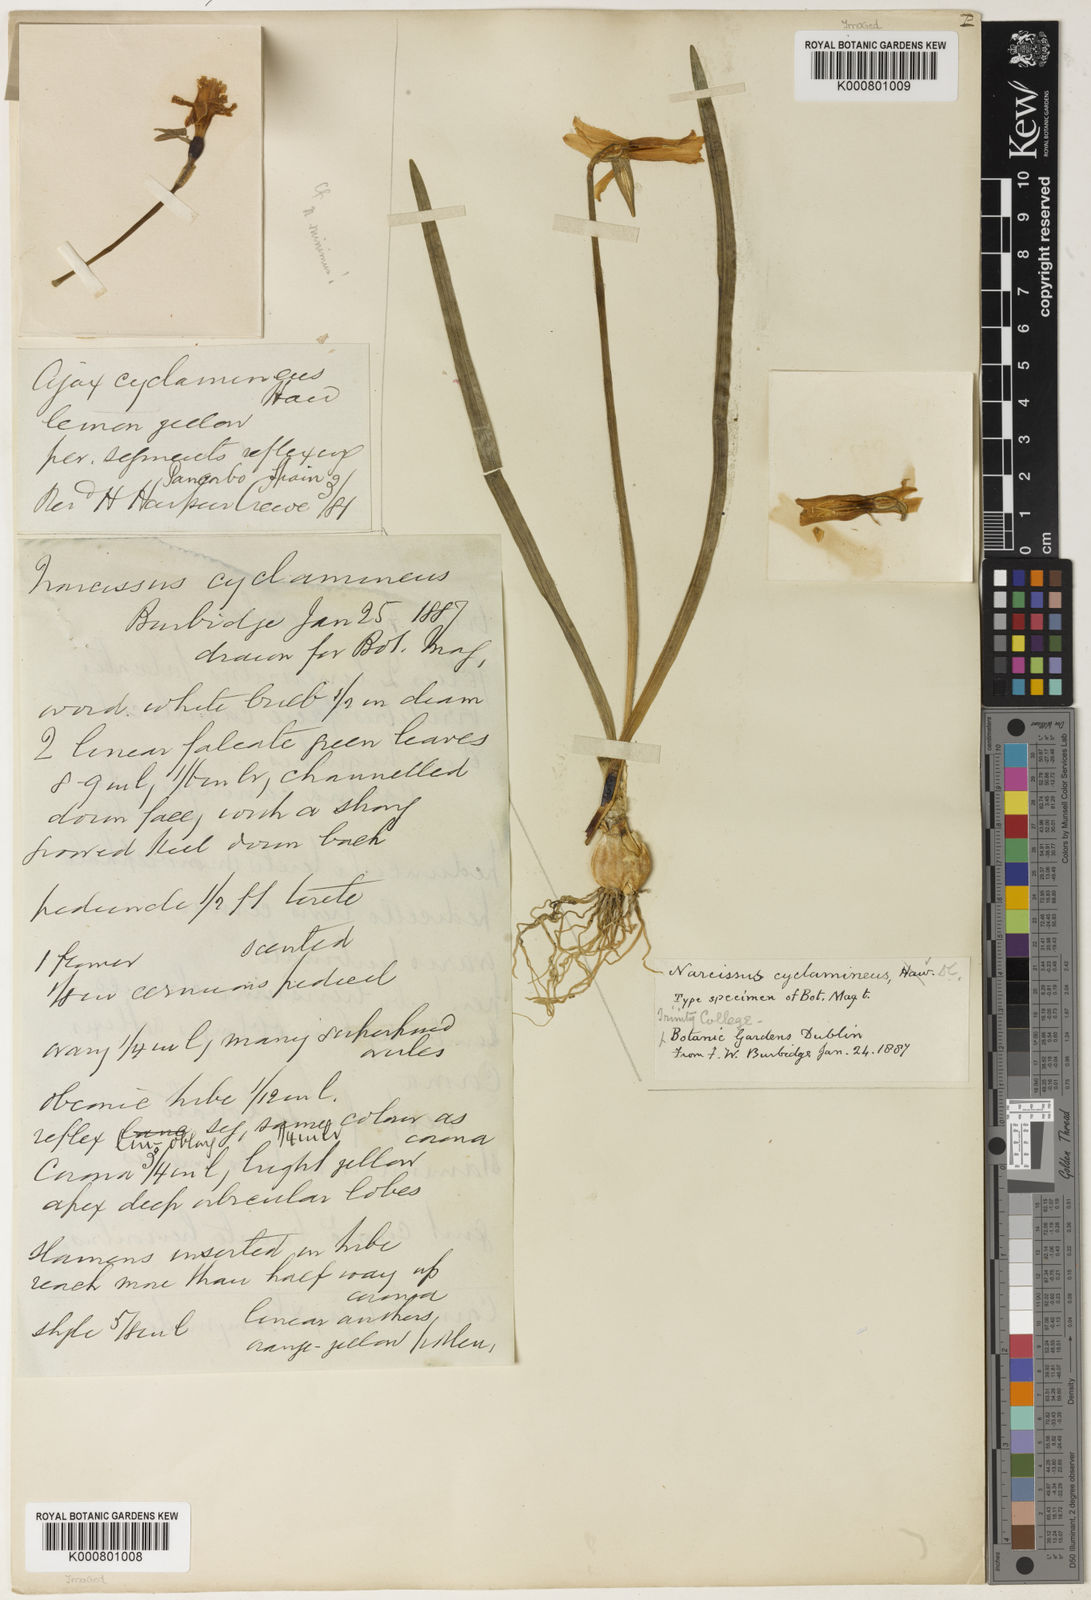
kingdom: Plantae
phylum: Tracheophyta
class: Liliopsida
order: Asparagales
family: Amaryllidaceae
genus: Narcissus
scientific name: Narcissus cyclamineus
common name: Cyclamen-flowered daffodil
